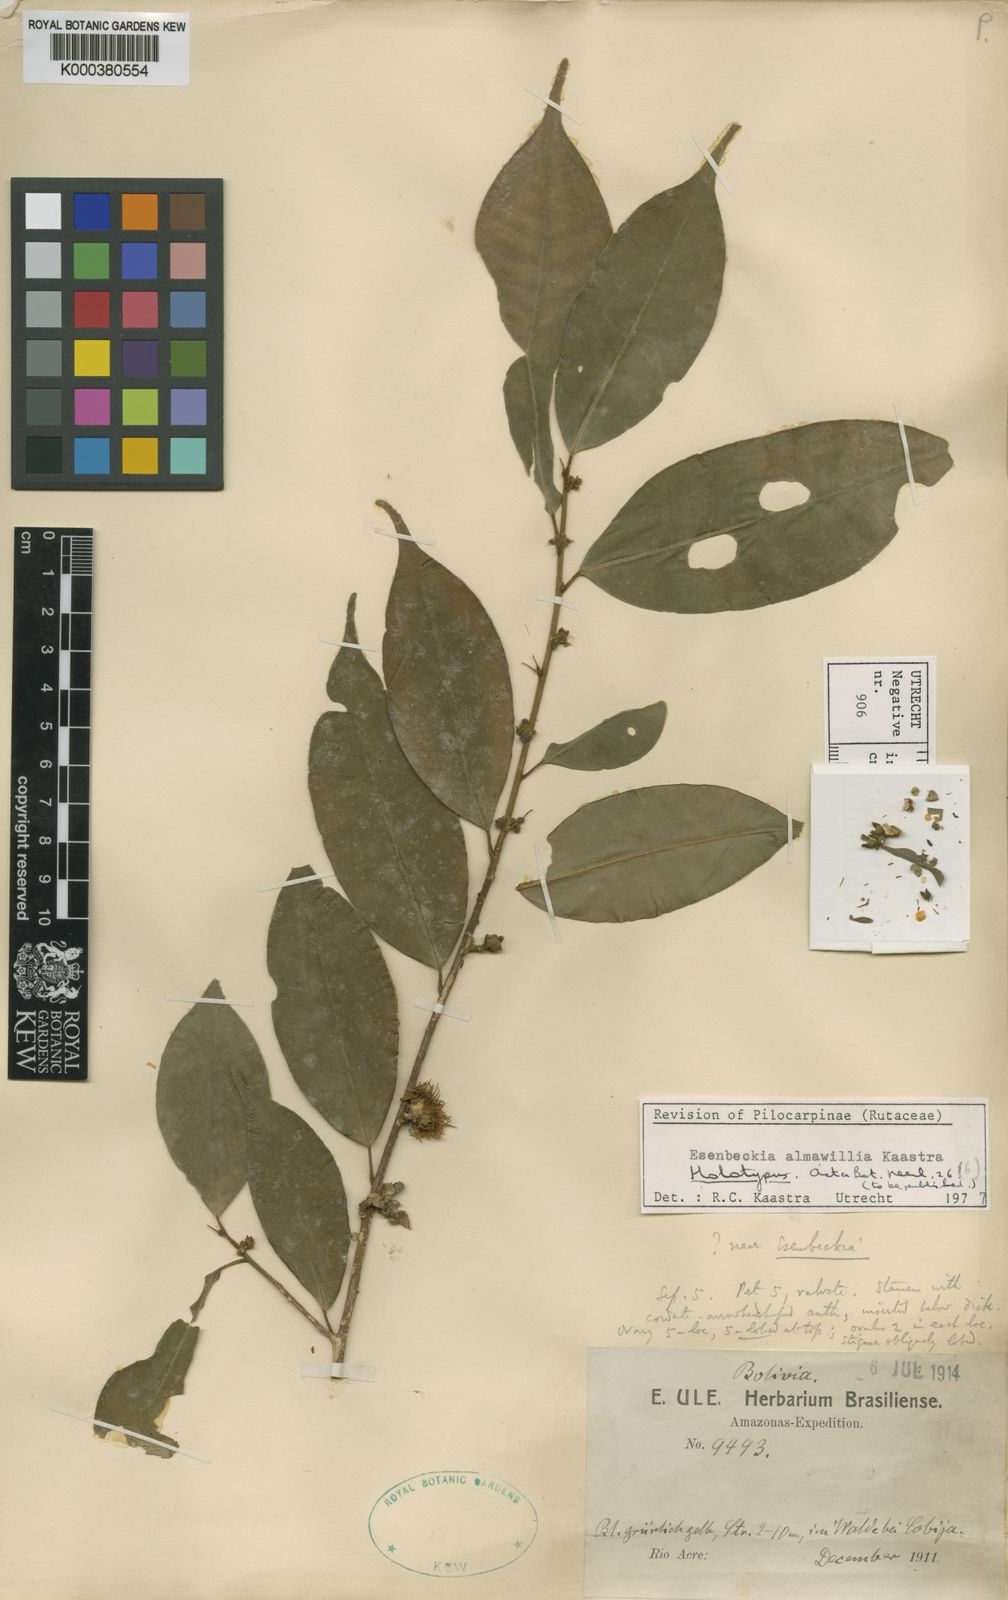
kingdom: Plantae
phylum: Tracheophyta
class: Magnoliopsida
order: Sapindales
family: Rutaceae
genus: Esenbeckia
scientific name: Esenbeckia almawillia
